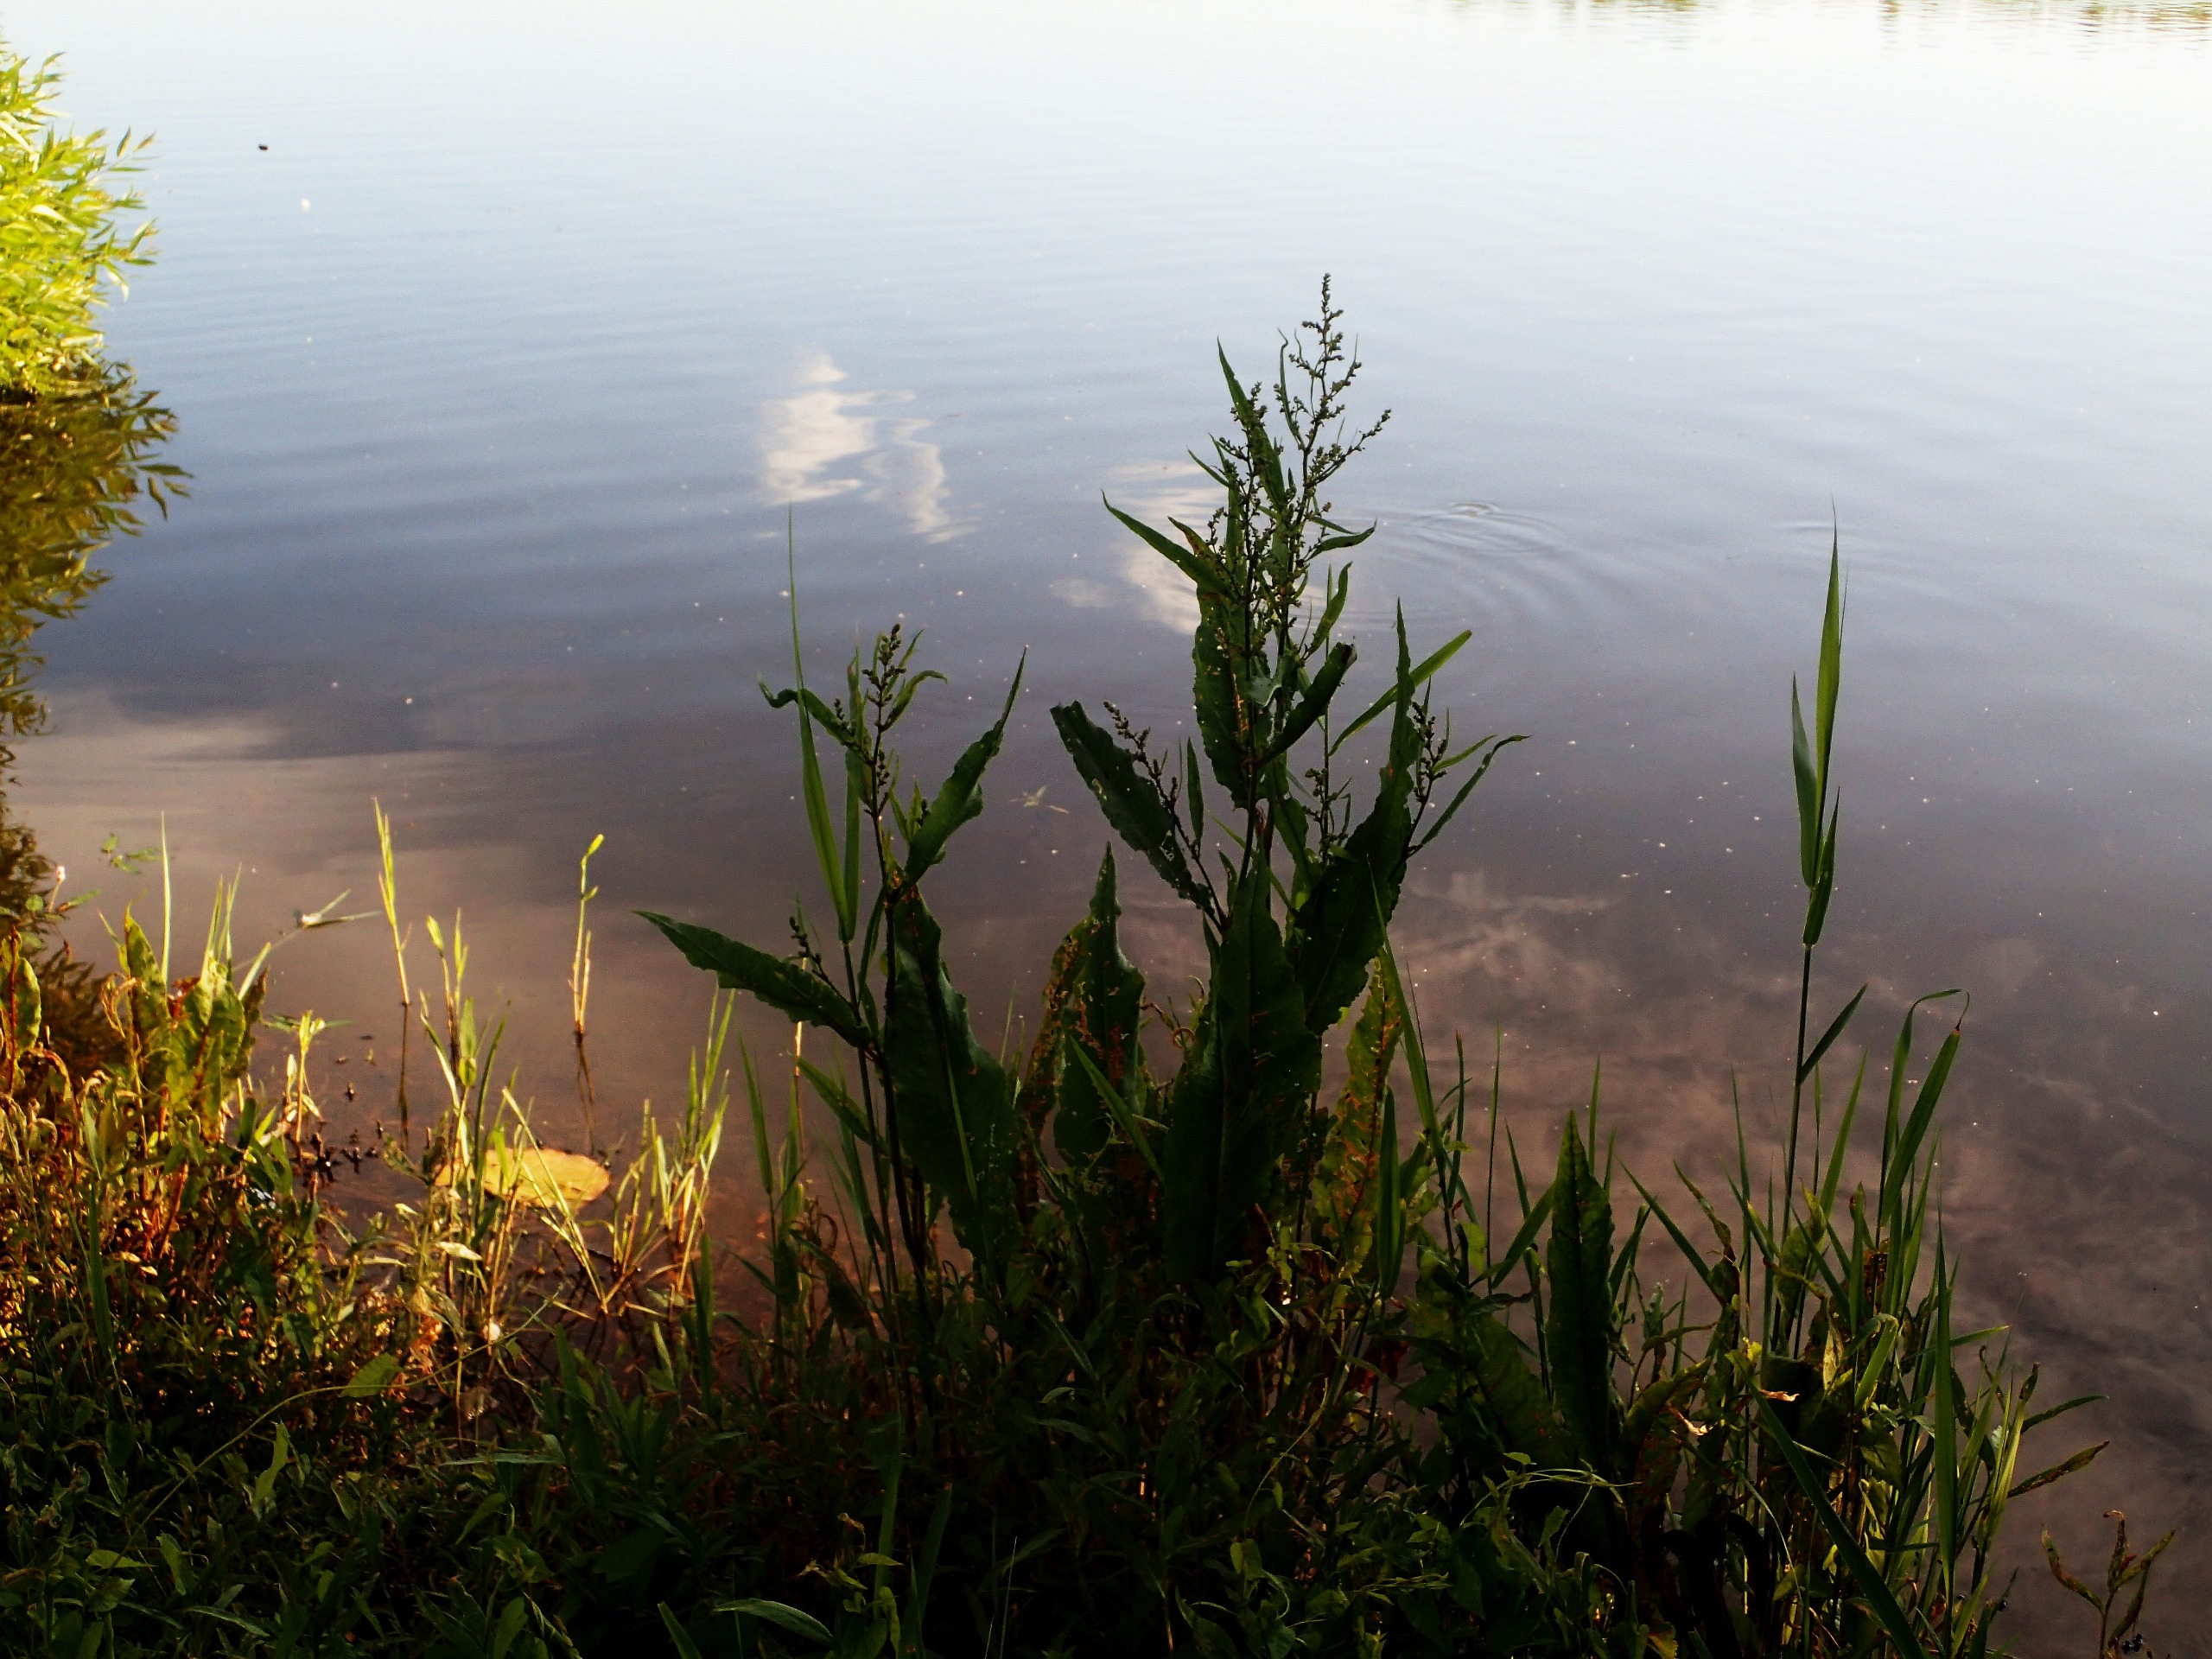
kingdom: Plantae
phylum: Tracheophyta
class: Magnoliopsida
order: Caryophyllales
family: Polygonaceae
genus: Rumex
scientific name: Rumex hydrolapathum
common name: Vand-skræppe
